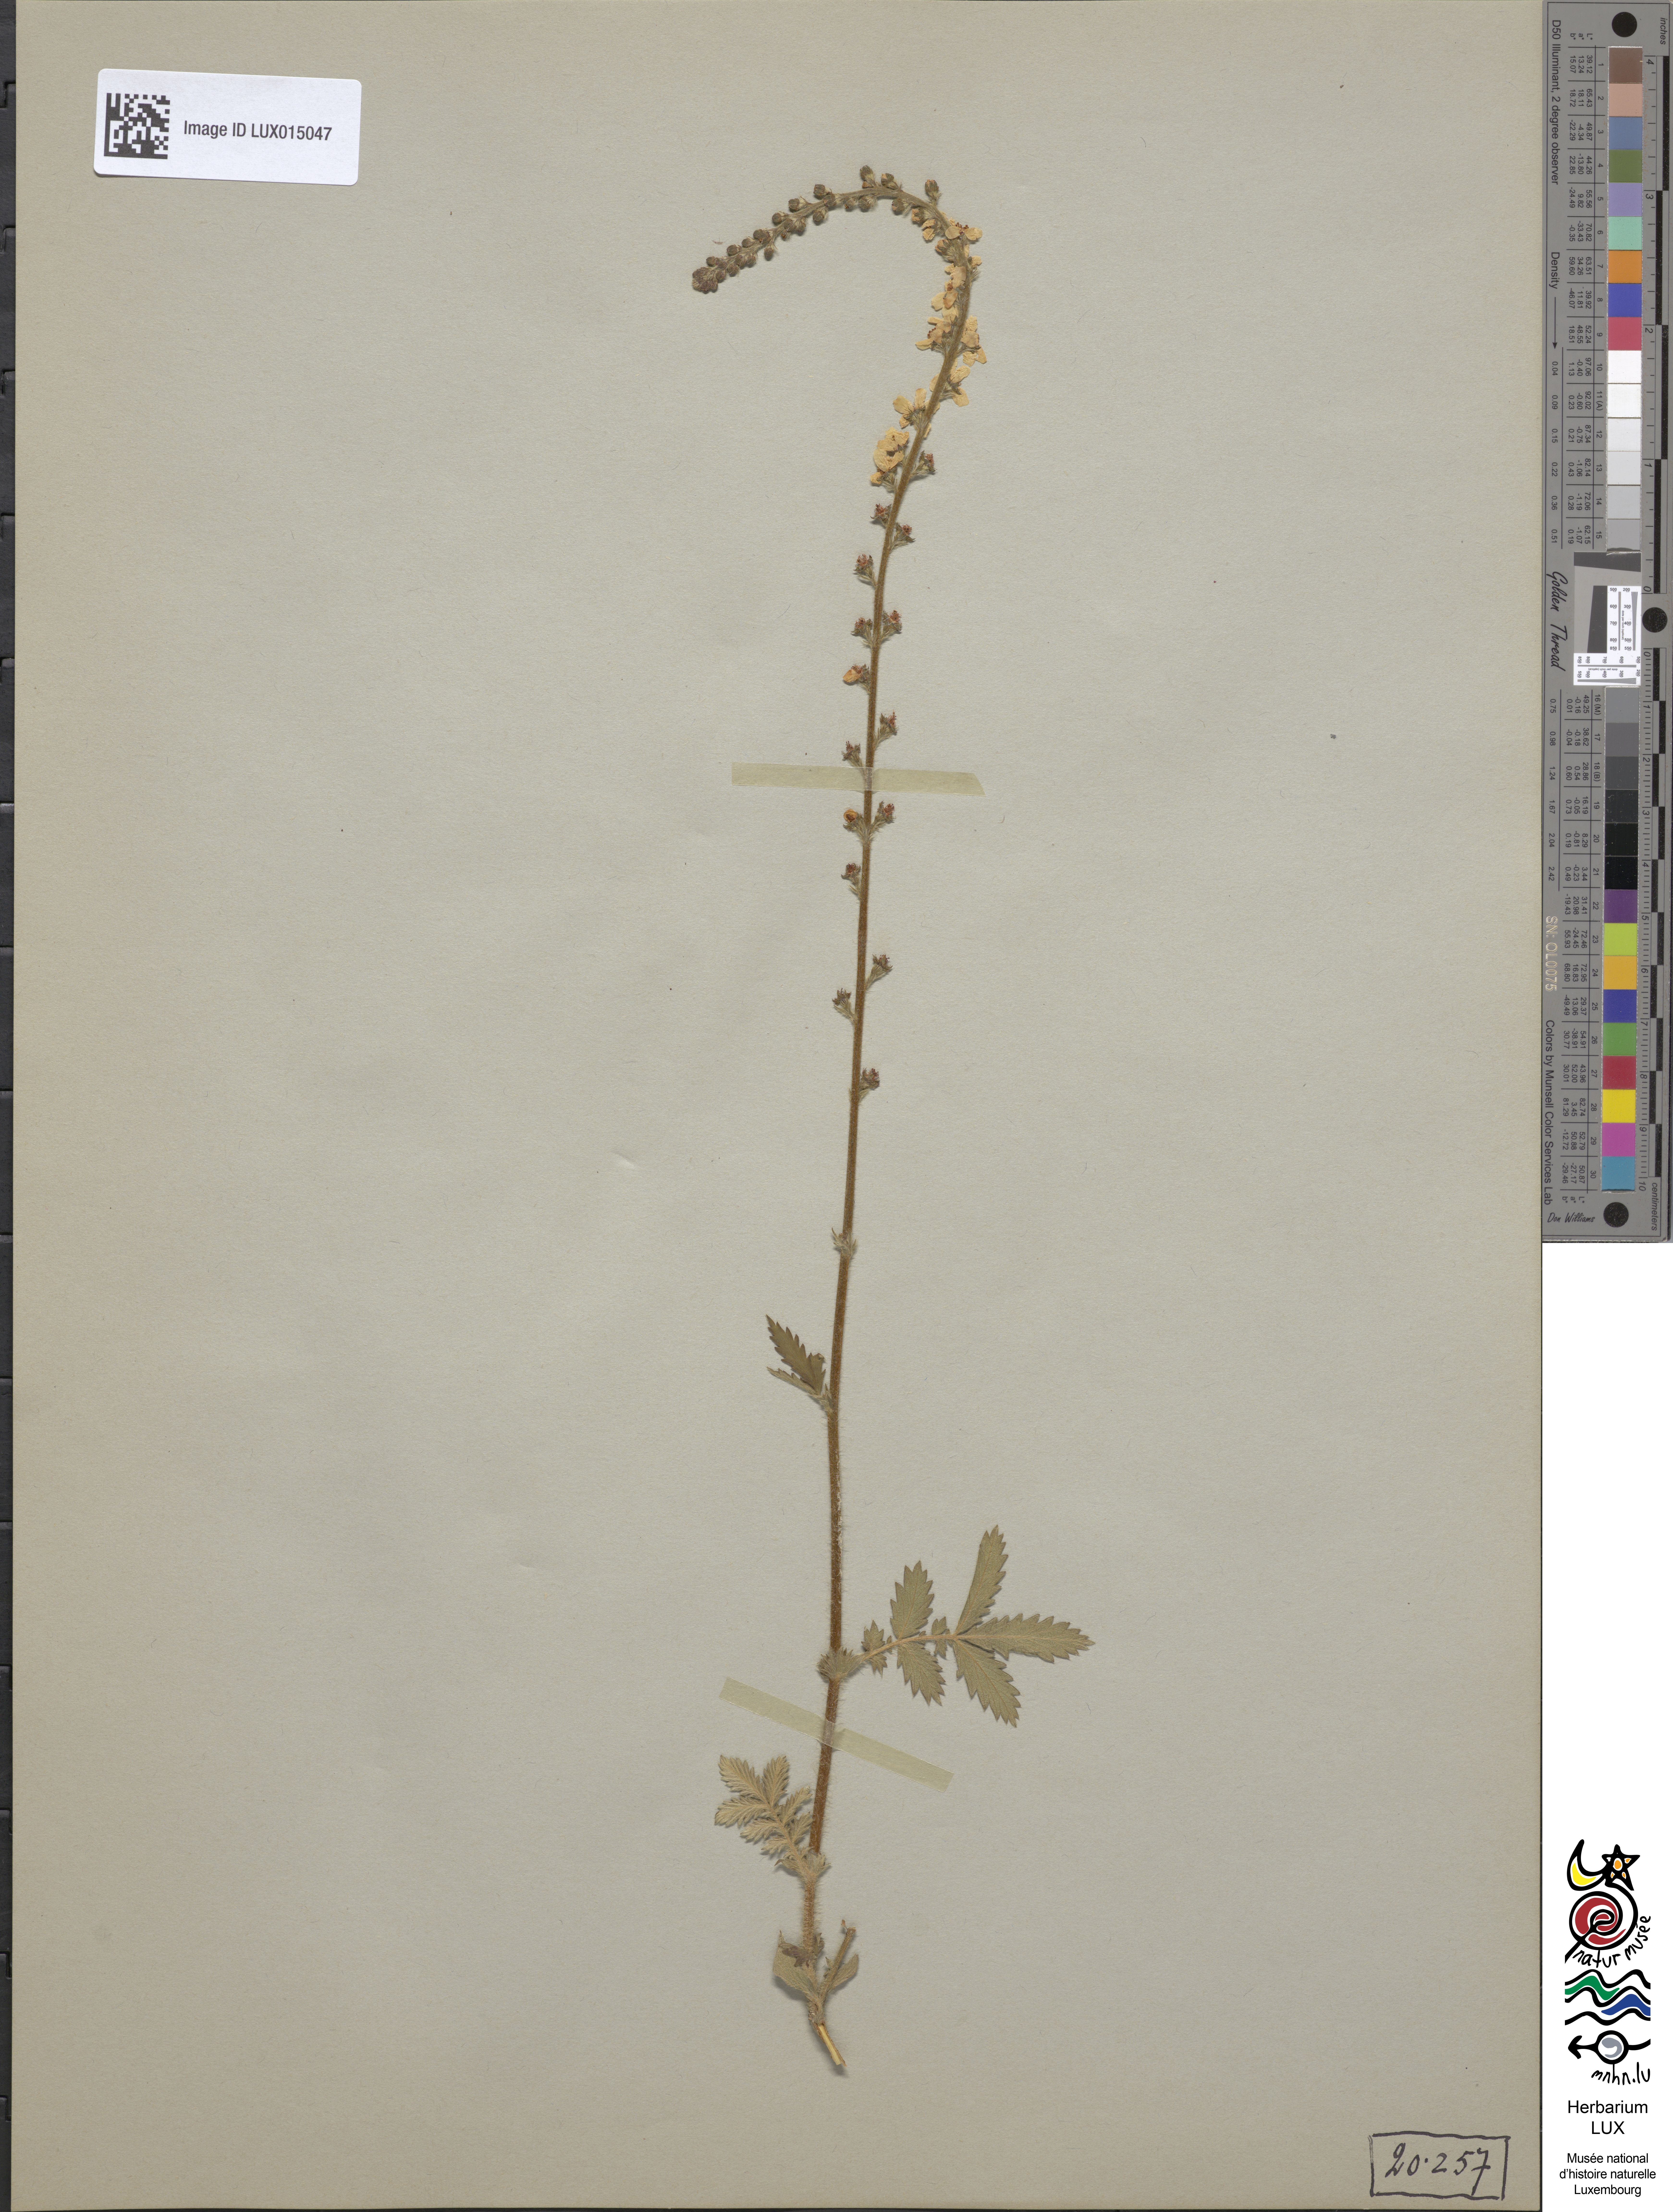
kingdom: Plantae
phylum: Tracheophyta
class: Magnoliopsida
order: Rosales
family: Rosaceae
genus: Agrimonia
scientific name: Agrimonia eupatoria
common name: Agrimony
